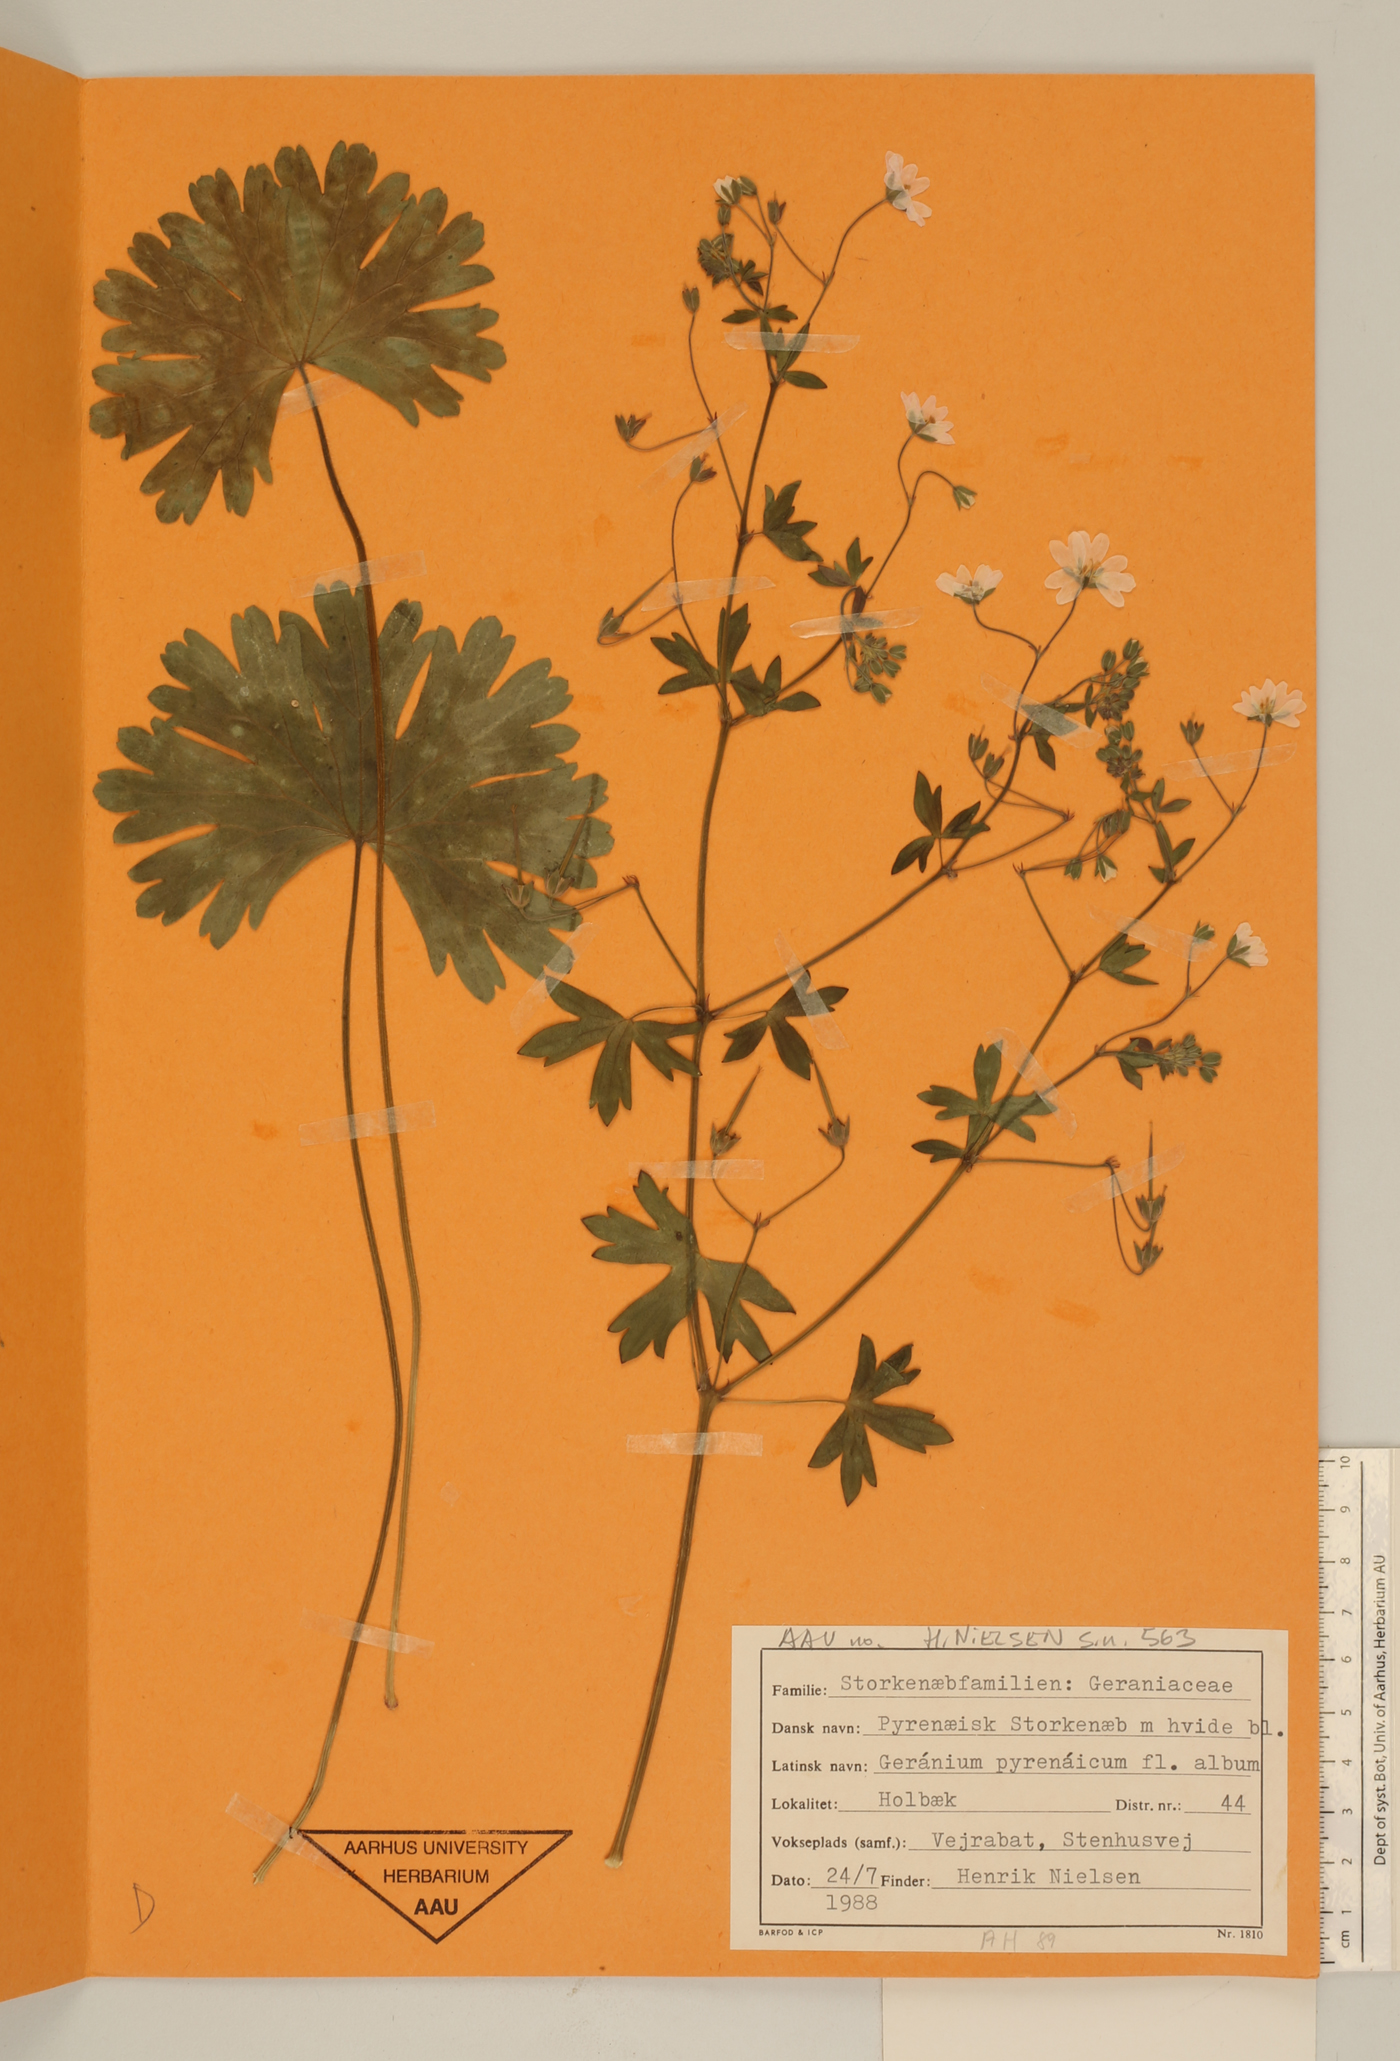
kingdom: Plantae
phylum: Tracheophyta
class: Magnoliopsida
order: Geraniales
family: Geraniaceae
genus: Geranium
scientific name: Geranium pyrenaicum
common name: Hedgerow crane's-bill
